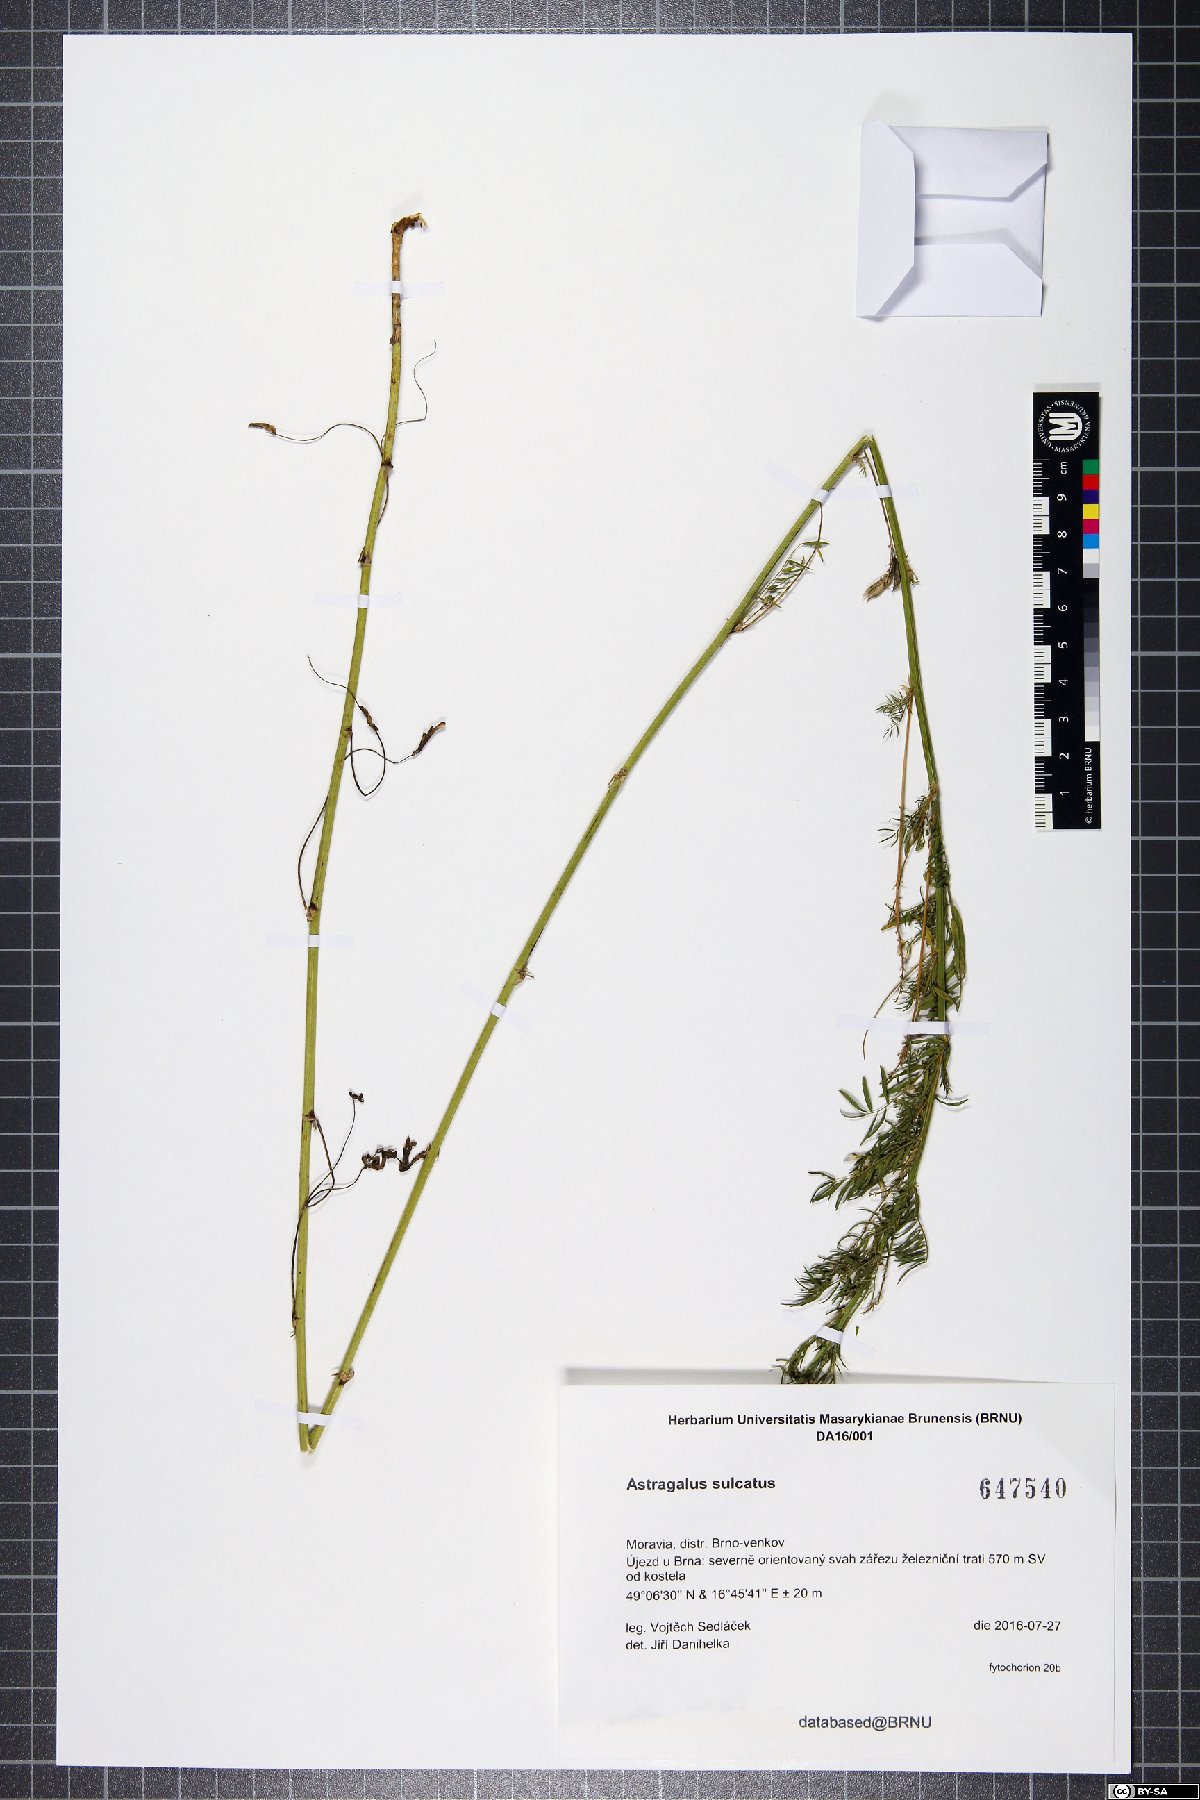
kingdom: Plantae
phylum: Tracheophyta
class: Magnoliopsida
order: Fabales
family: Fabaceae
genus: Astragalus
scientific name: Astragalus sulcatus
